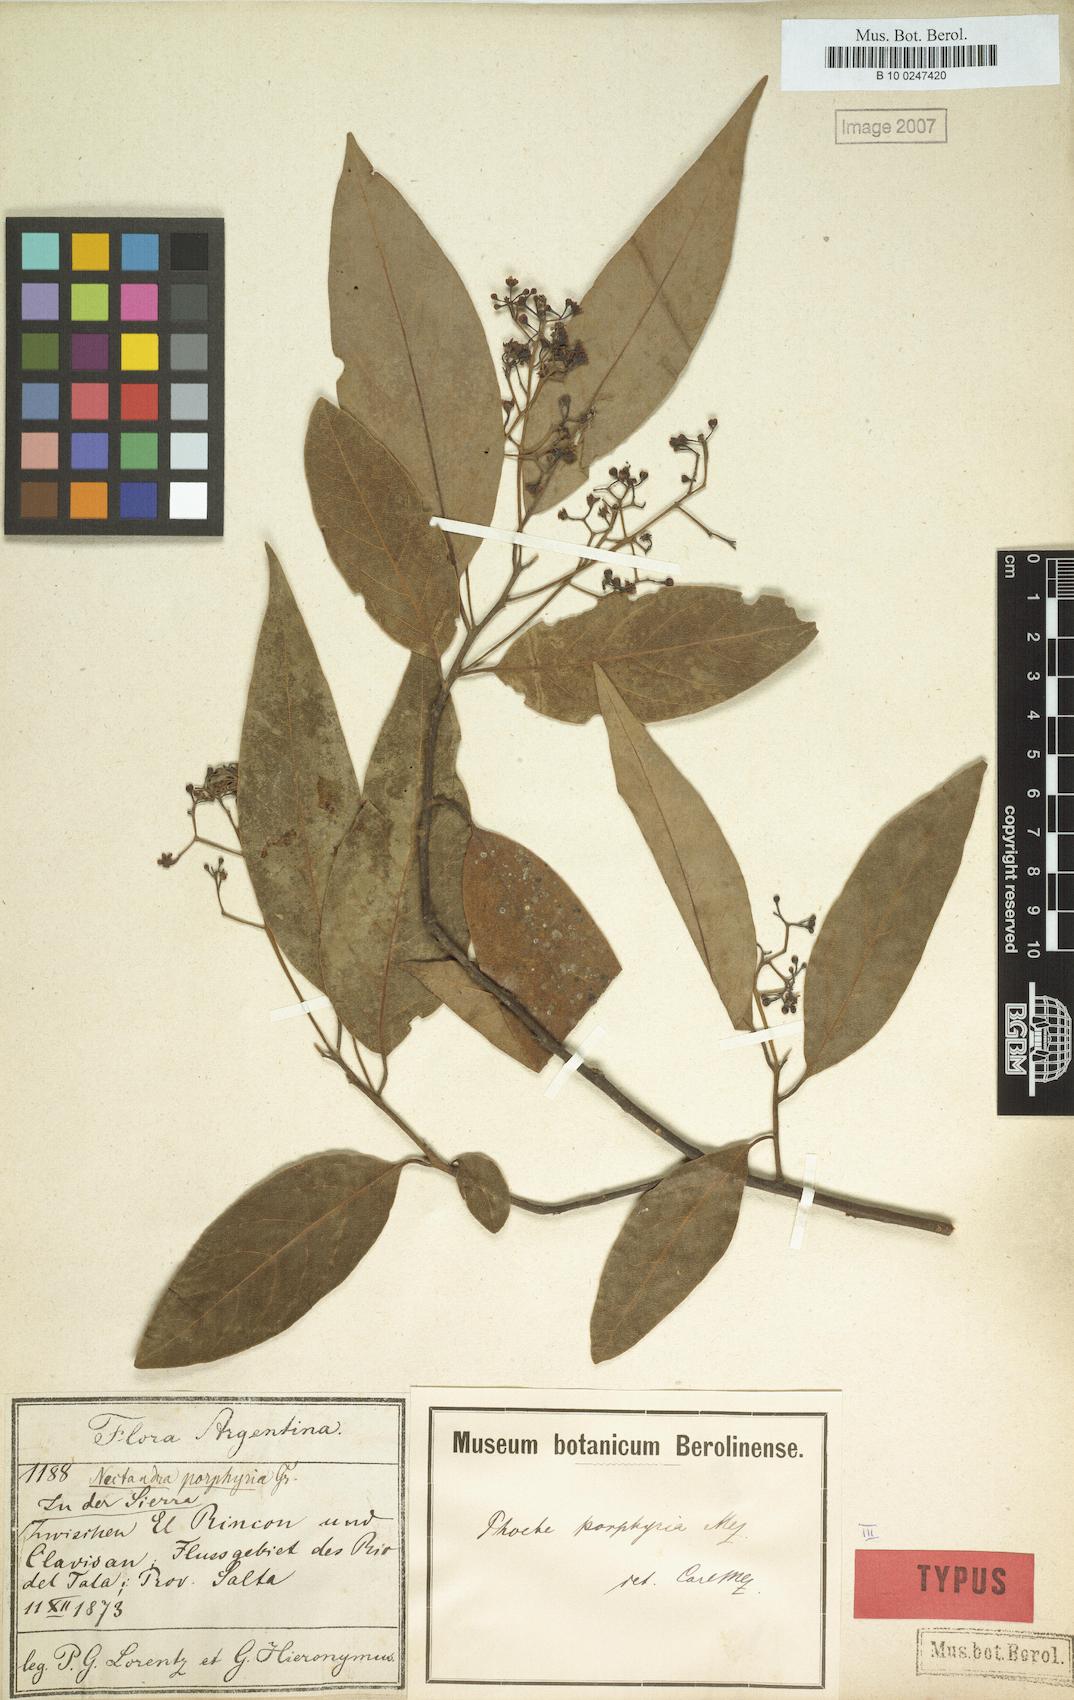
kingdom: Plantae
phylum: Tracheophyta
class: Magnoliopsida
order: Laurales
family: Lauraceae
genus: Ocotea
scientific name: Ocotea porphyria
